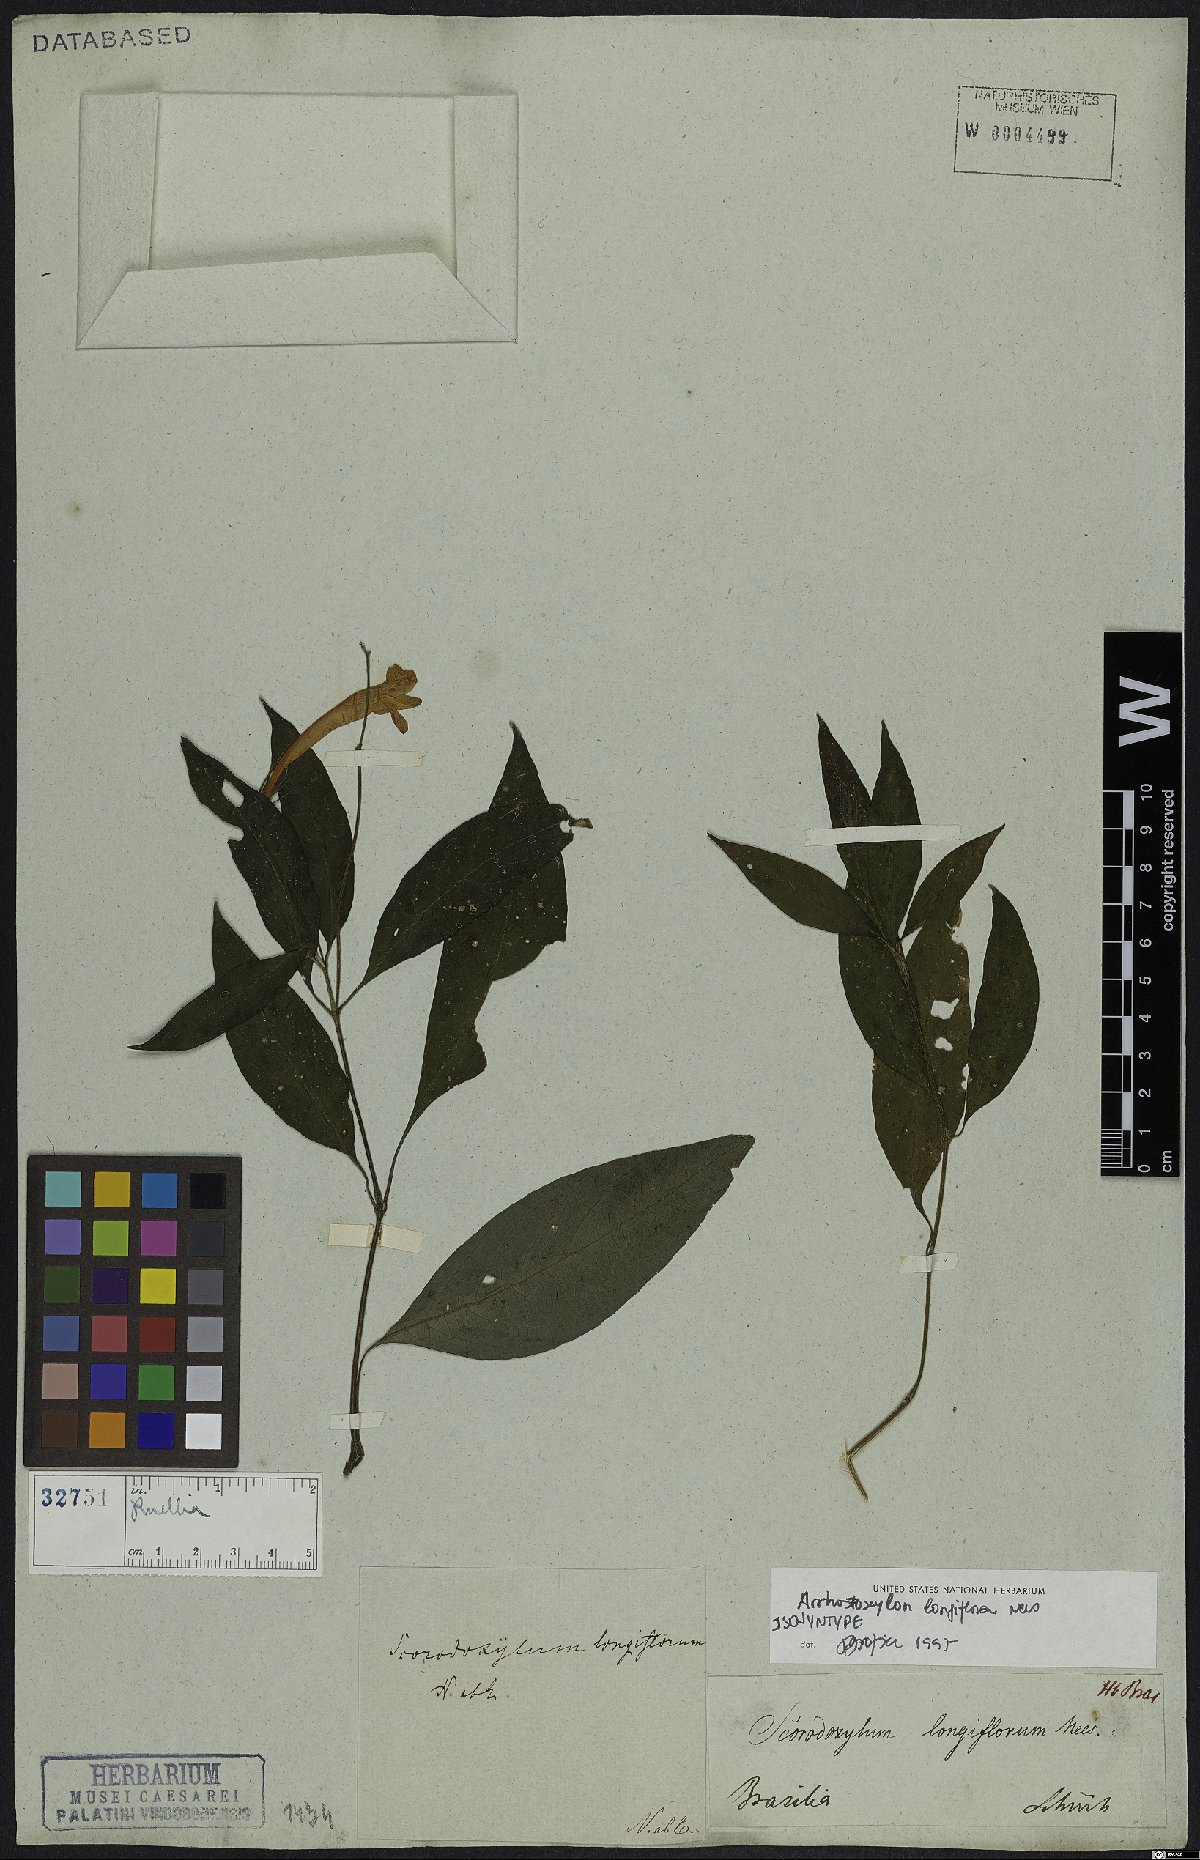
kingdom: Plantae
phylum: Tracheophyta
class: Magnoliopsida
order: Lamiales
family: Acanthaceae
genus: Ruellia
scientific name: Ruellia Arrhostoxylum longiflorum
